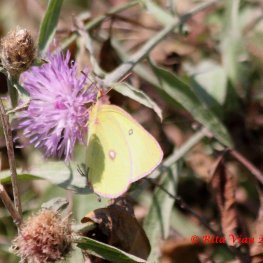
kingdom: Animalia
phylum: Arthropoda
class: Insecta
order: Lepidoptera
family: Pieridae
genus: Colias
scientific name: Colias interior
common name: Pink-edged Sulphur
